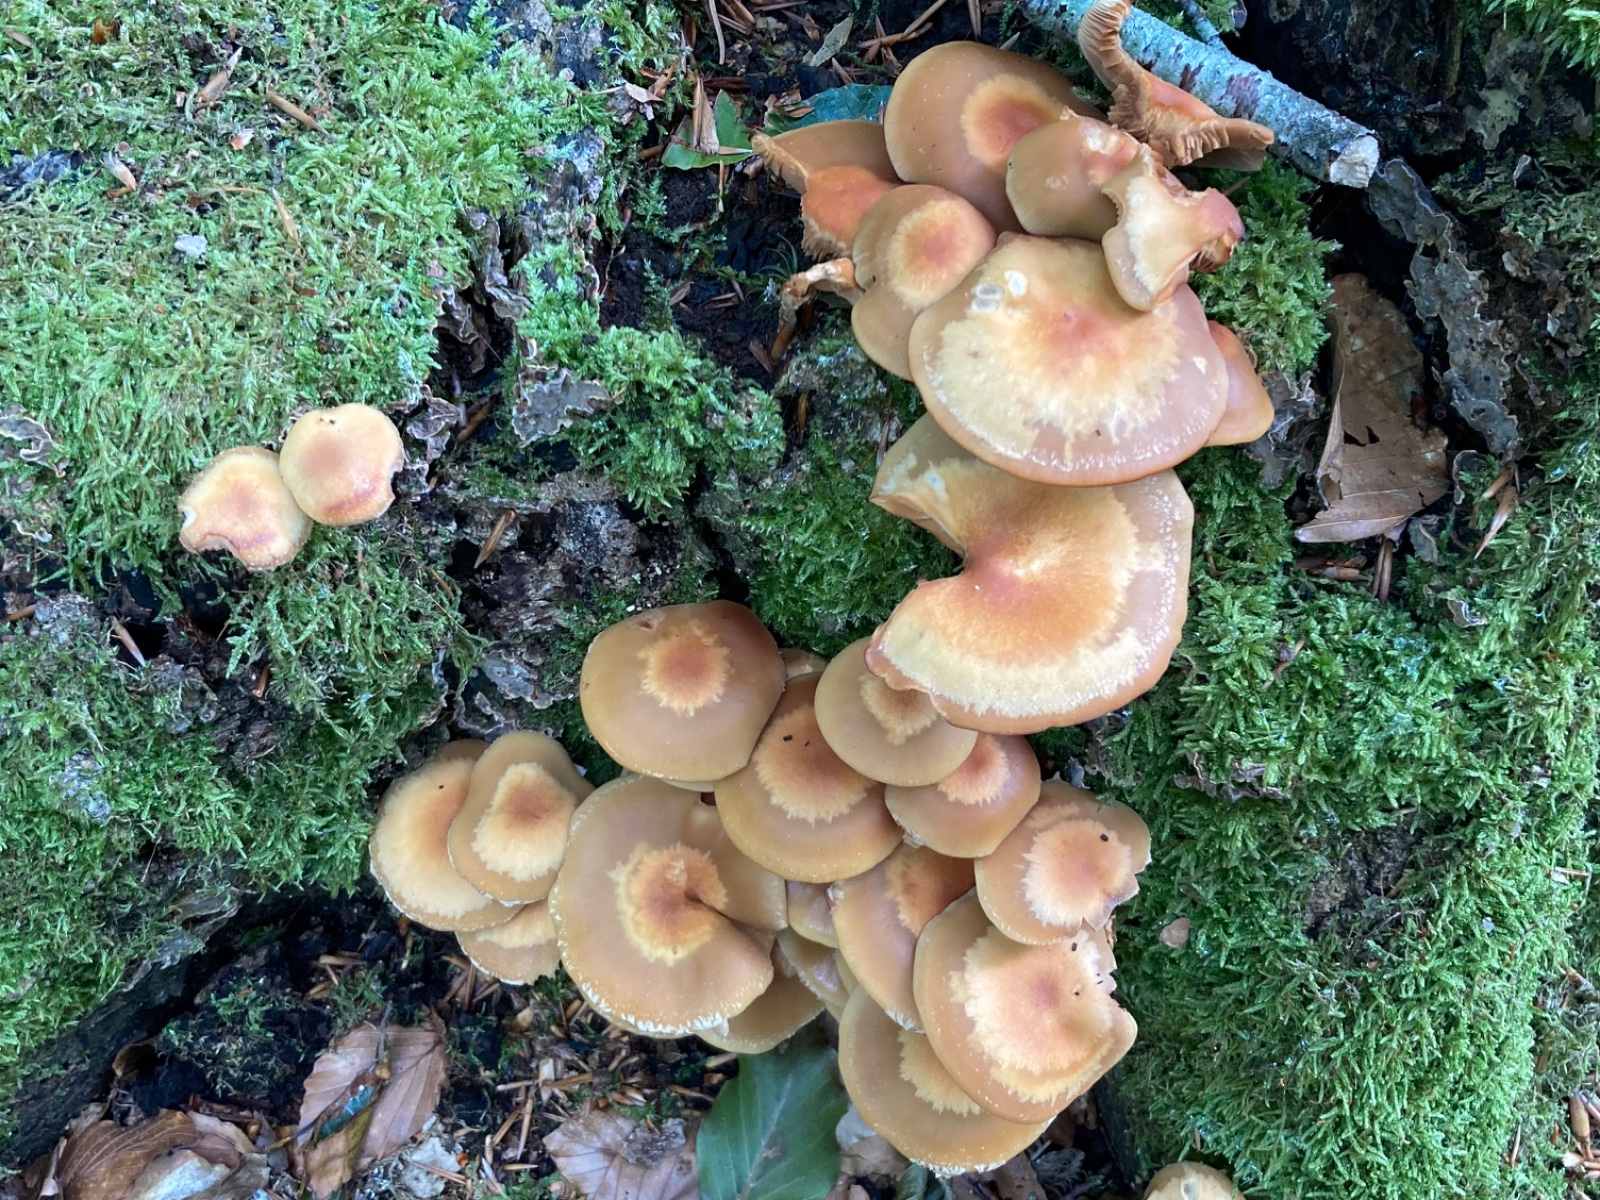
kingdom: Fungi
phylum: Basidiomycota
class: Agaricomycetes
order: Agaricales
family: Strophariaceae
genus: Kuehneromyces
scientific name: Kuehneromyces mutabilis
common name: foranderlig skælhat
